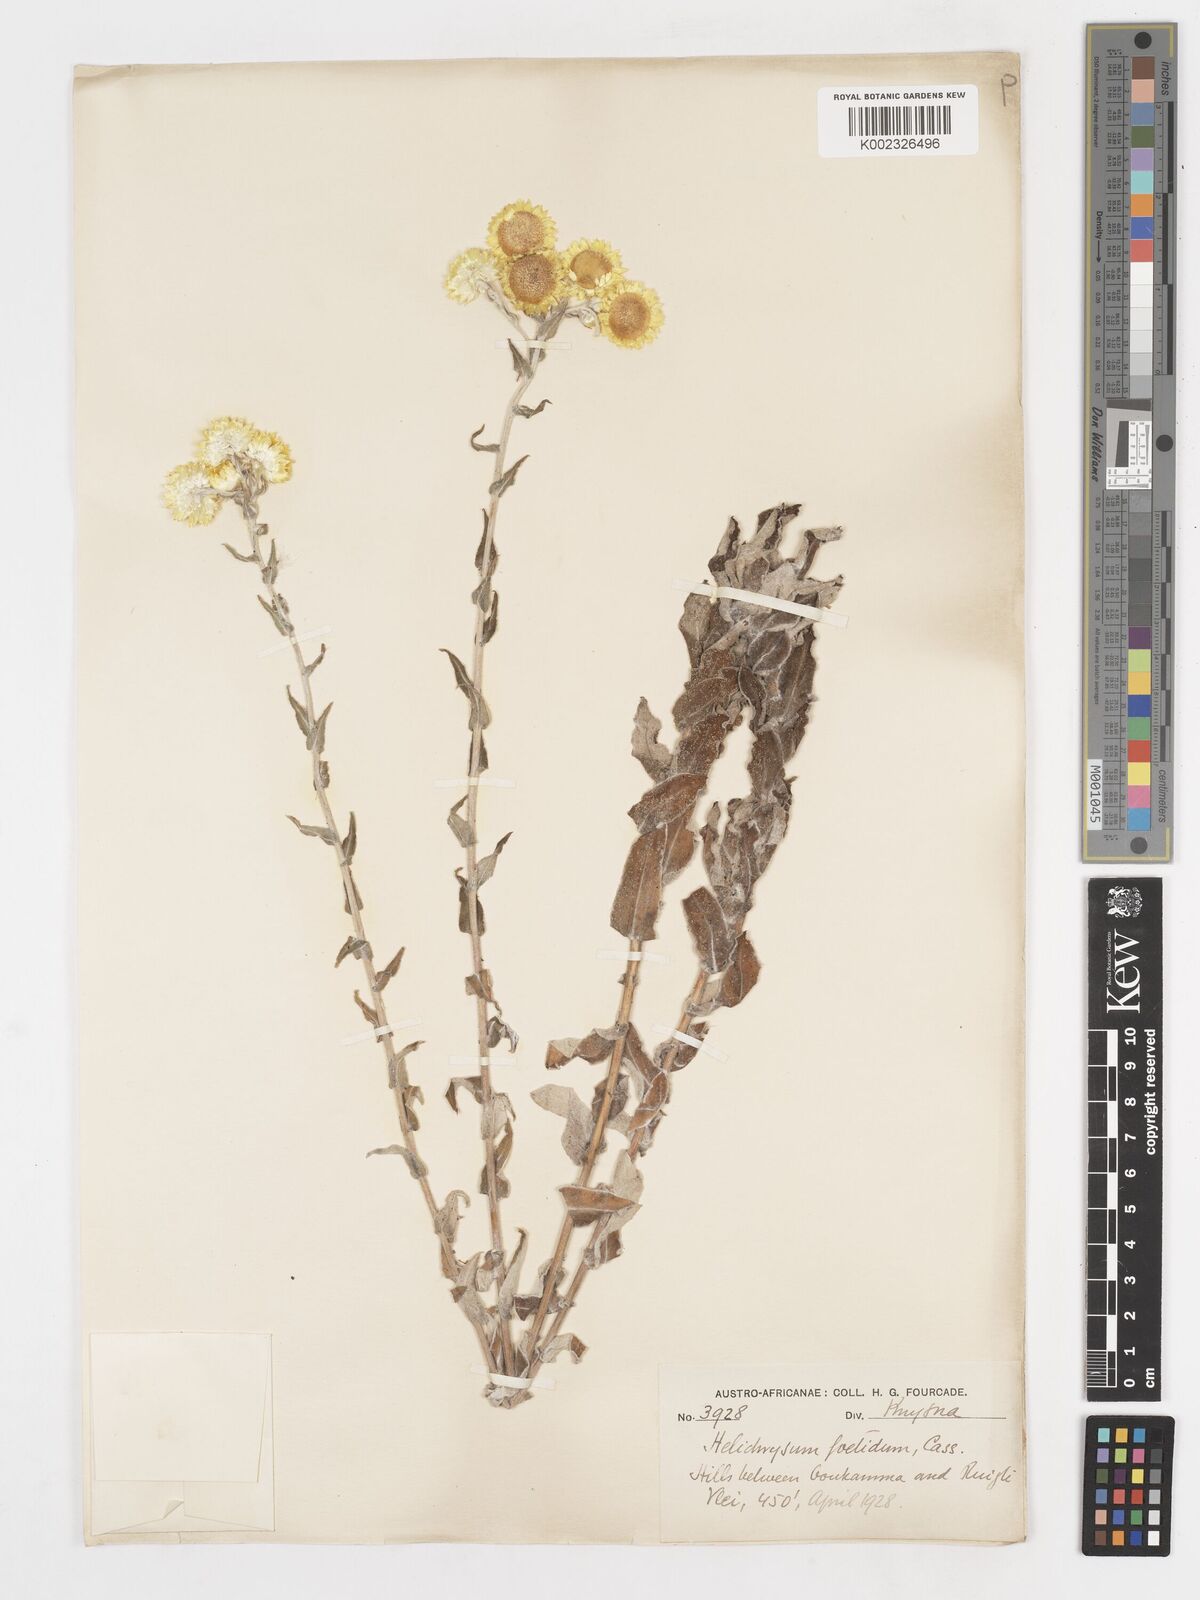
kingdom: Plantae
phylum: Tracheophyta
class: Magnoliopsida
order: Asterales
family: Asteraceae
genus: Helichrysum
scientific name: Helichrysum foetidum
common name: Stinking everlasting
